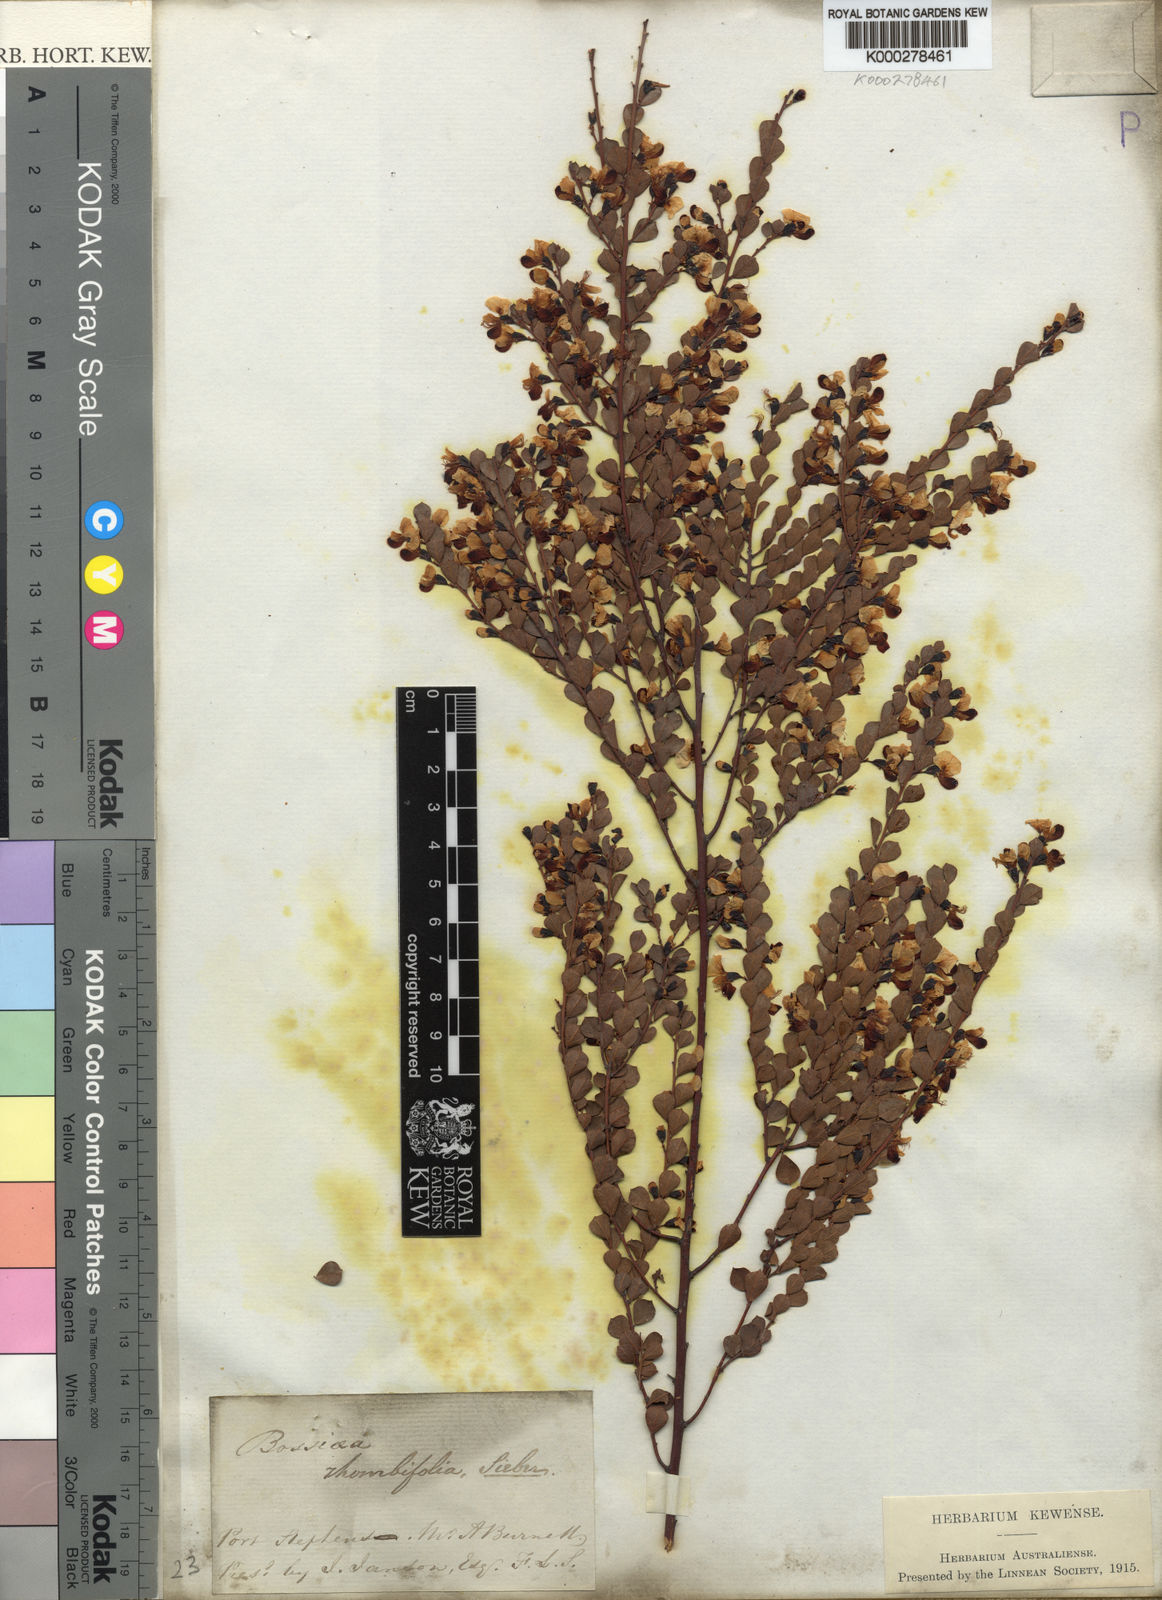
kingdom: Plantae
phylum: Tracheophyta
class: Magnoliopsida
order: Fabales
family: Fabaceae
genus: Bossiaea
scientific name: Bossiaea rhombifolia
